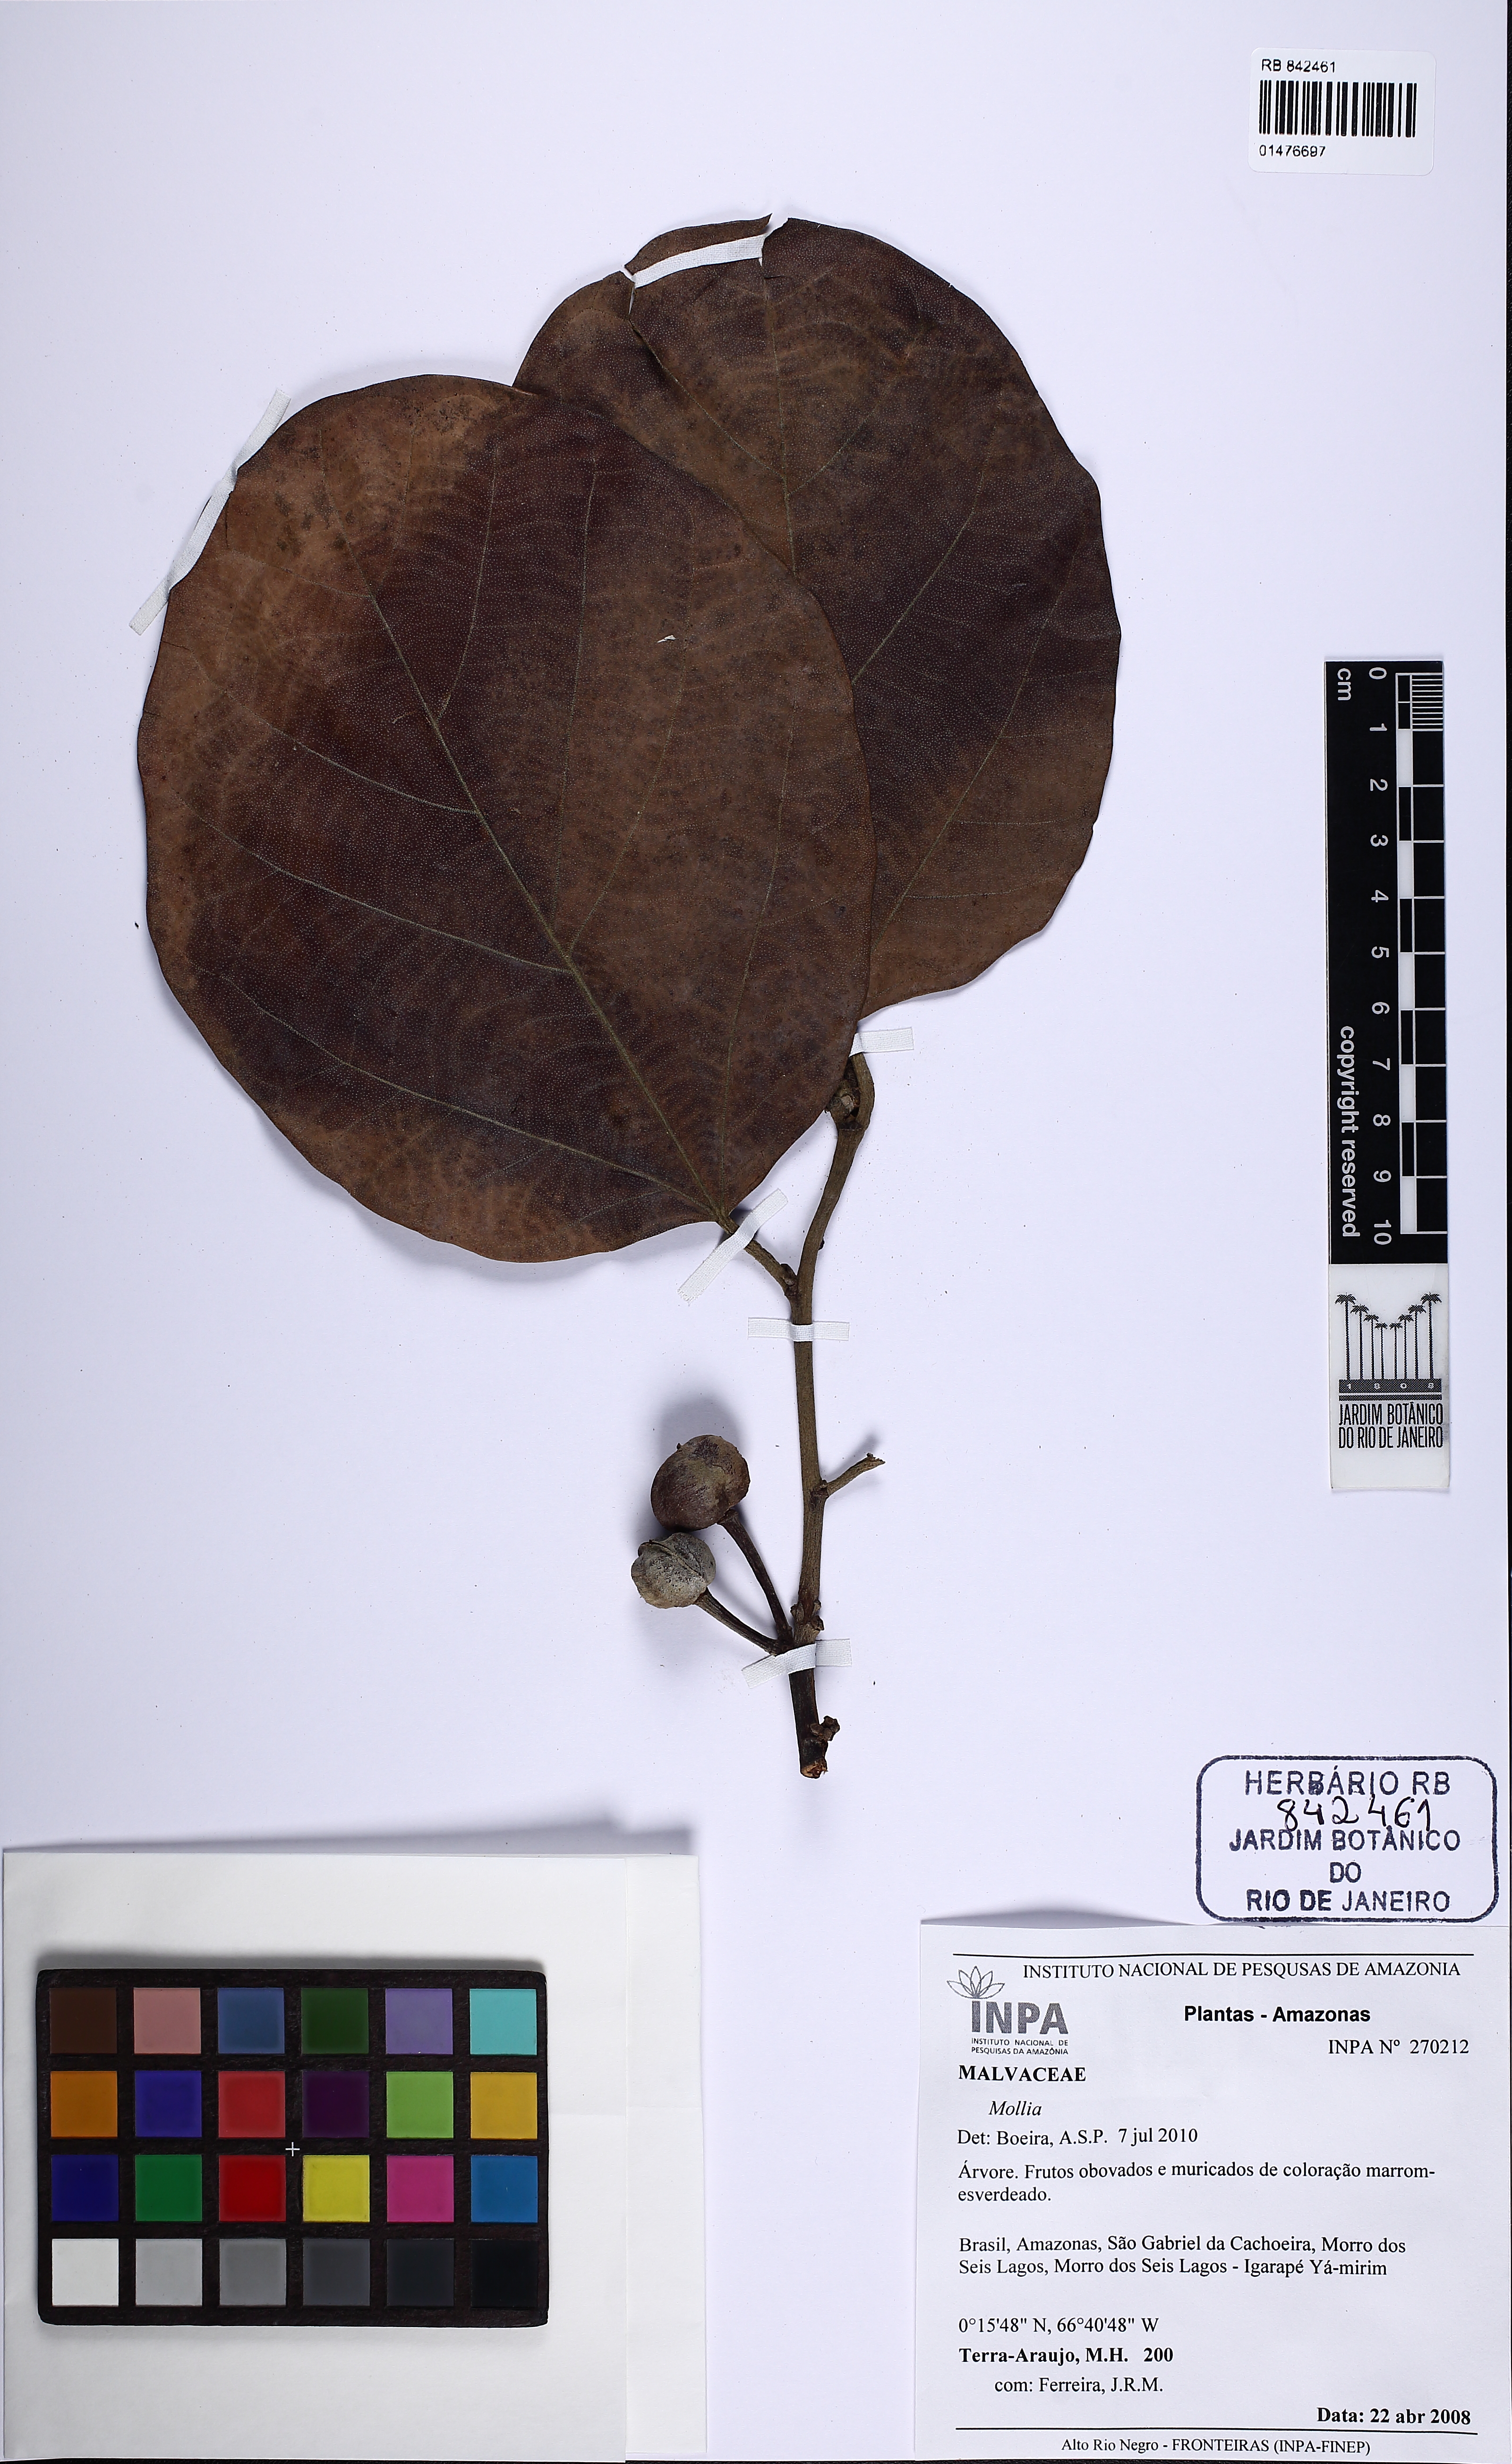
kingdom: Plantae
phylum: Tracheophyta
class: Magnoliopsida
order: Malvales
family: Malvaceae
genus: Mollia
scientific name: Mollia
